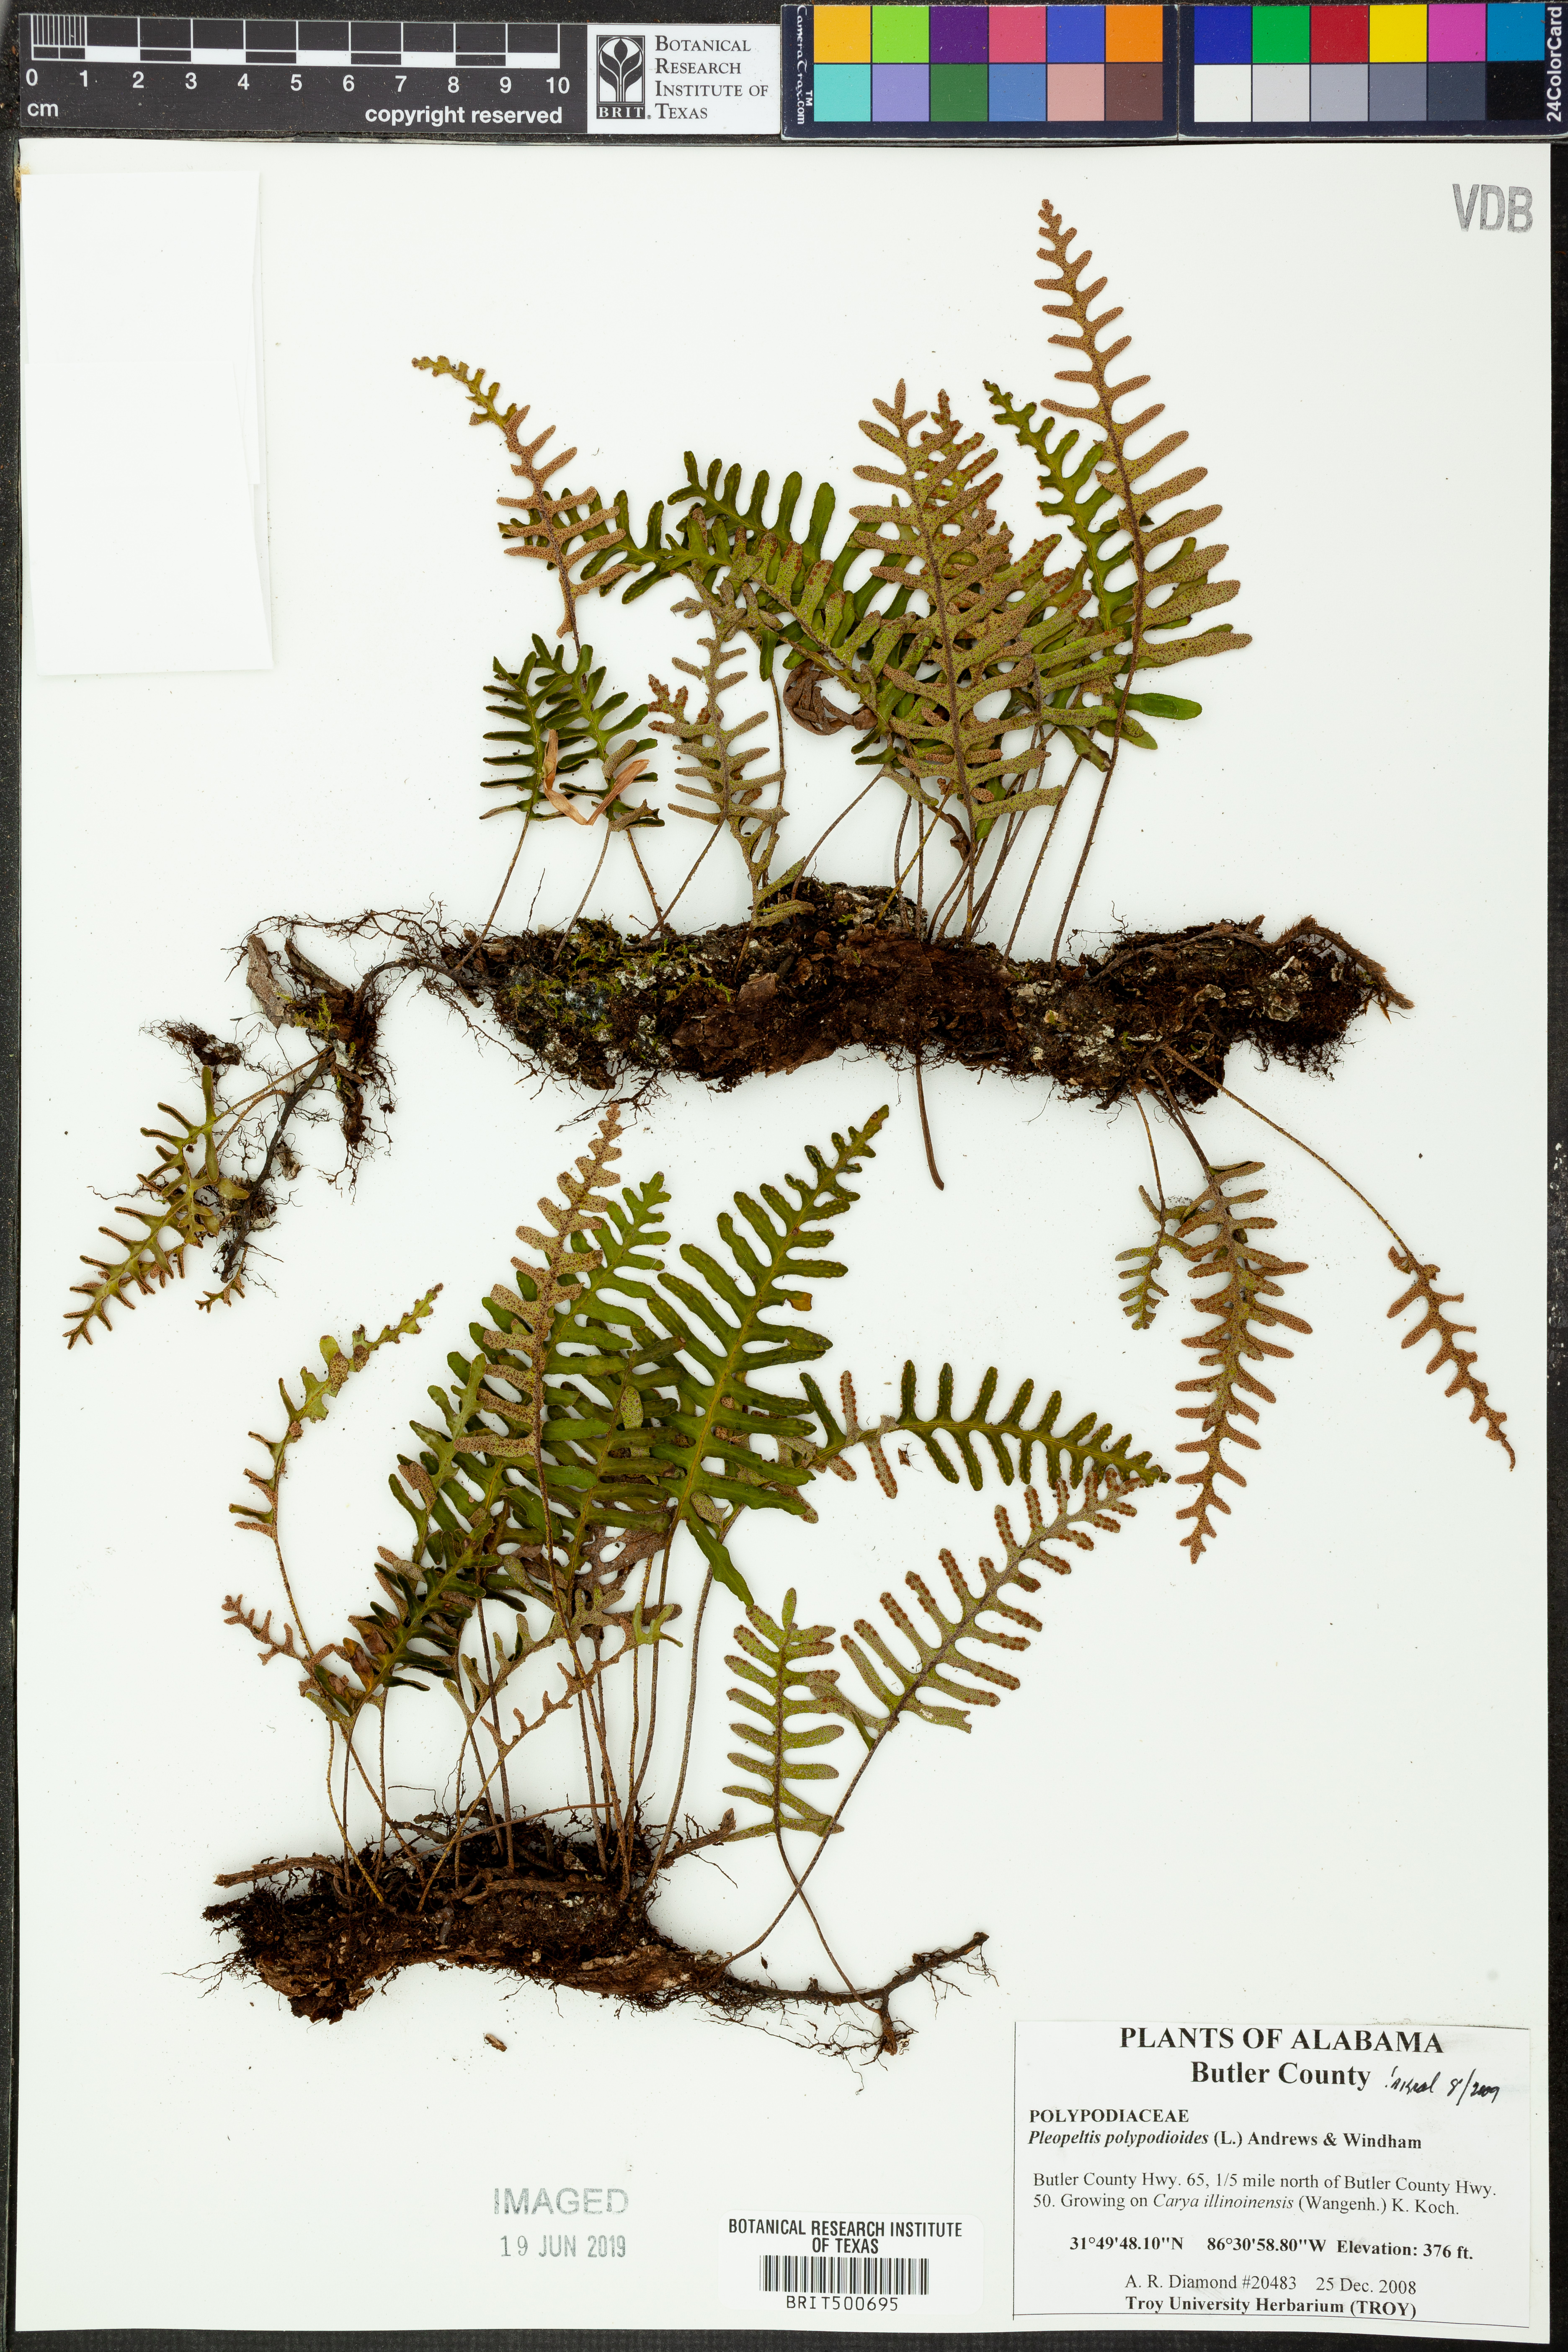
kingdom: Plantae
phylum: Tracheophyta
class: Polypodiopsida
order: Polypodiales
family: Polypodiaceae
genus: Pleopeltis
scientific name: Pleopeltis polypodioides
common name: Resurrection fern
